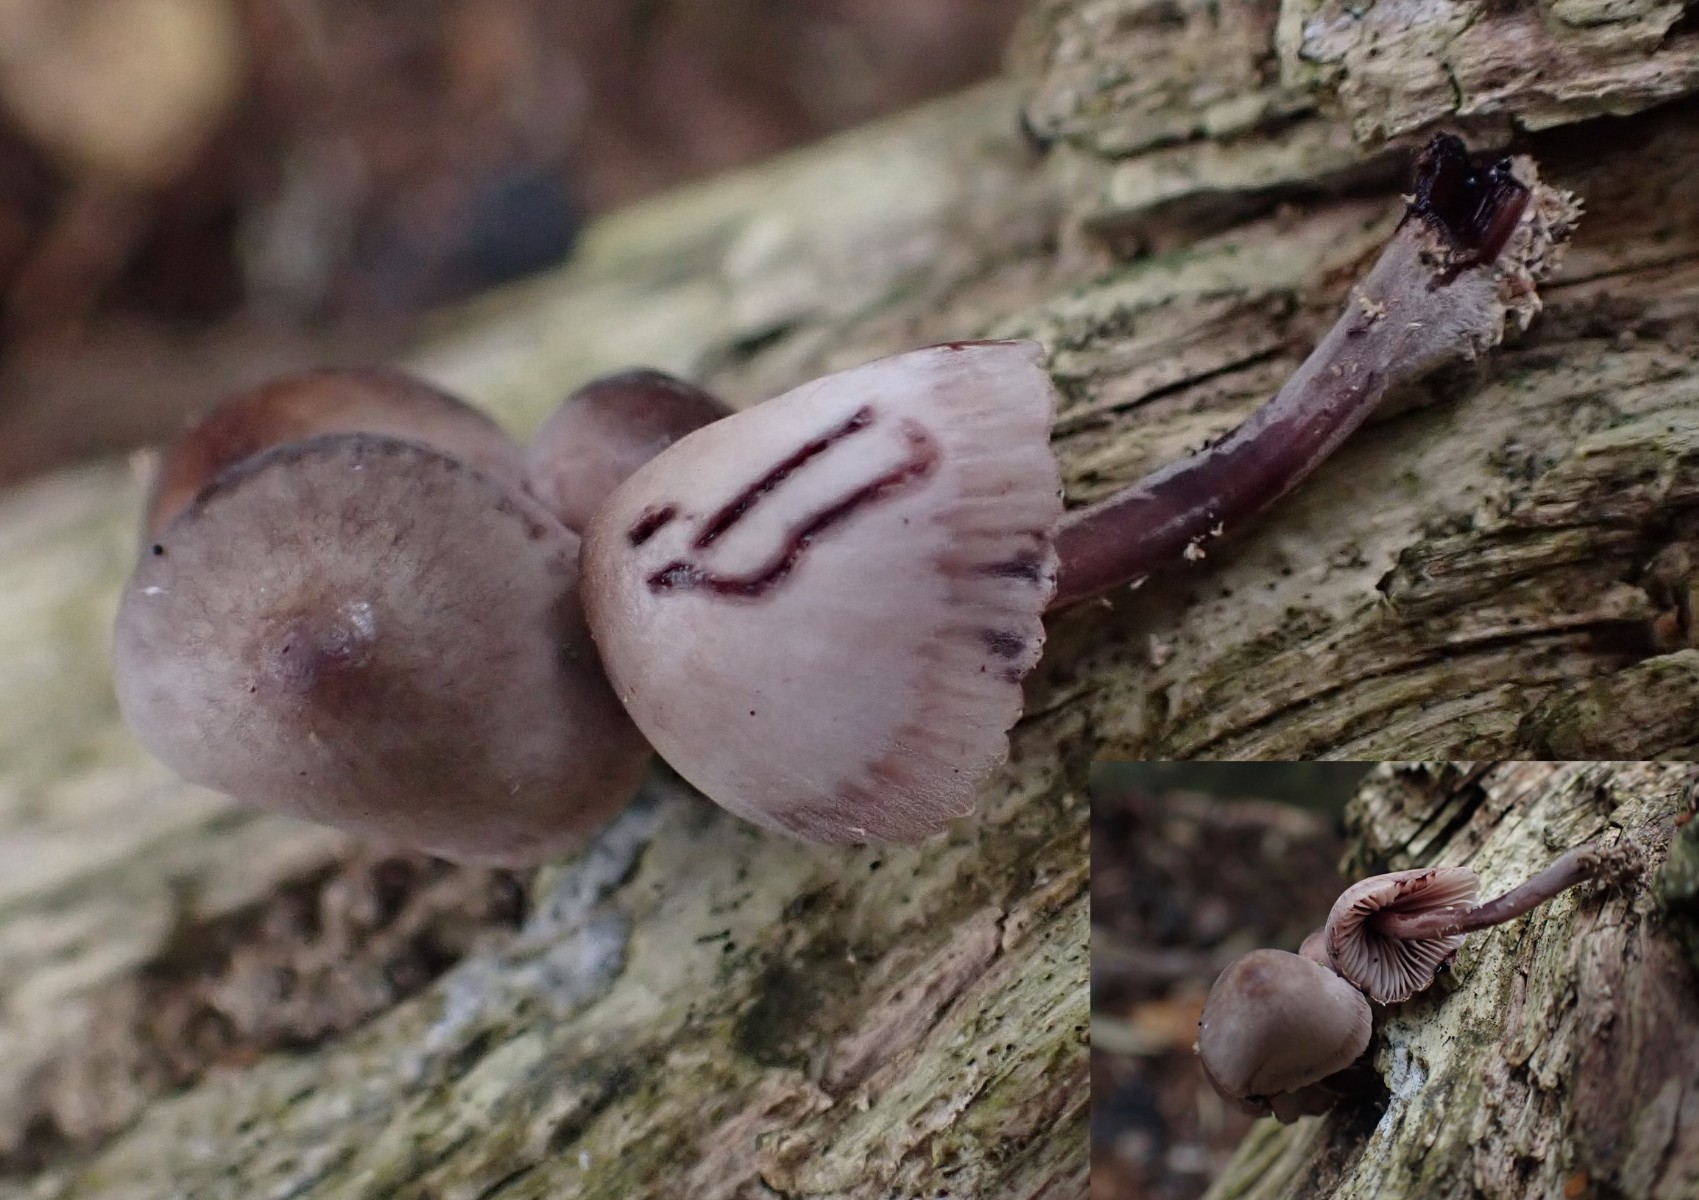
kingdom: Fungi
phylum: Basidiomycota
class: Agaricomycetes
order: Agaricales
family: Mycenaceae
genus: Mycena
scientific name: Mycena haematopus
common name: blødende huesvamp
